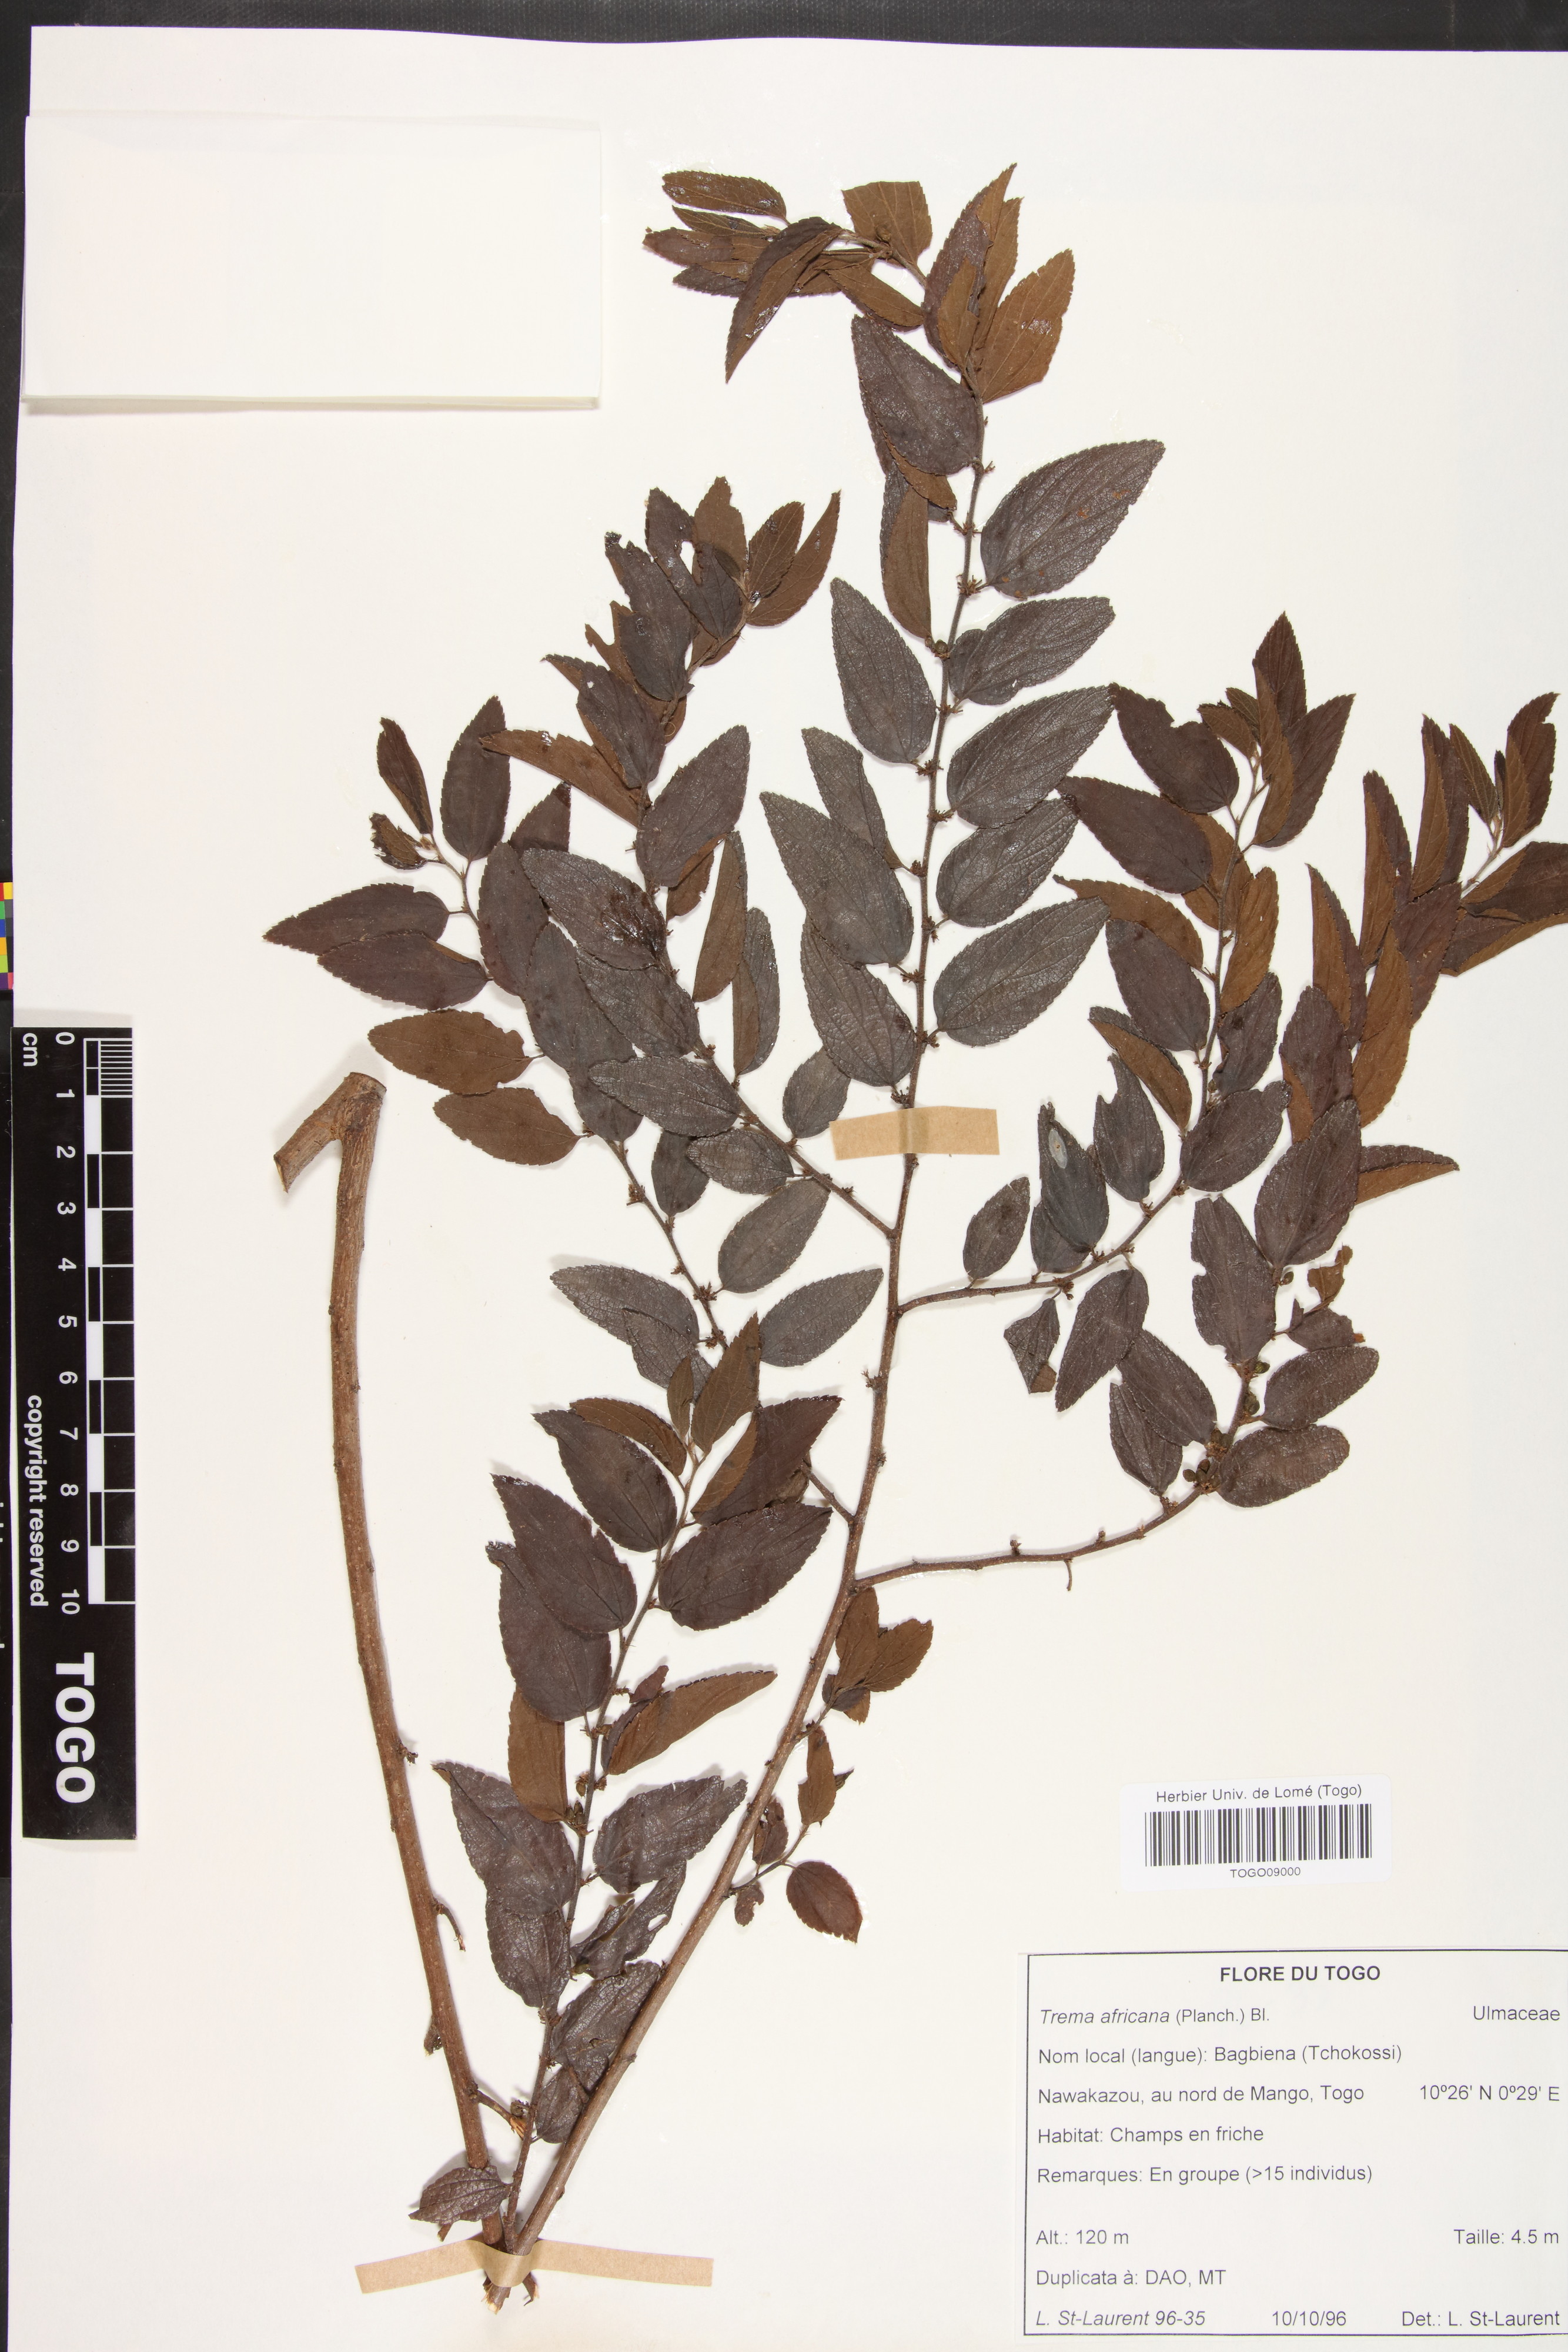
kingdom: Plantae
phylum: Tracheophyta
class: Magnoliopsida
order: Rosales
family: Cannabaceae
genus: Trema
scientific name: Trema orientale
